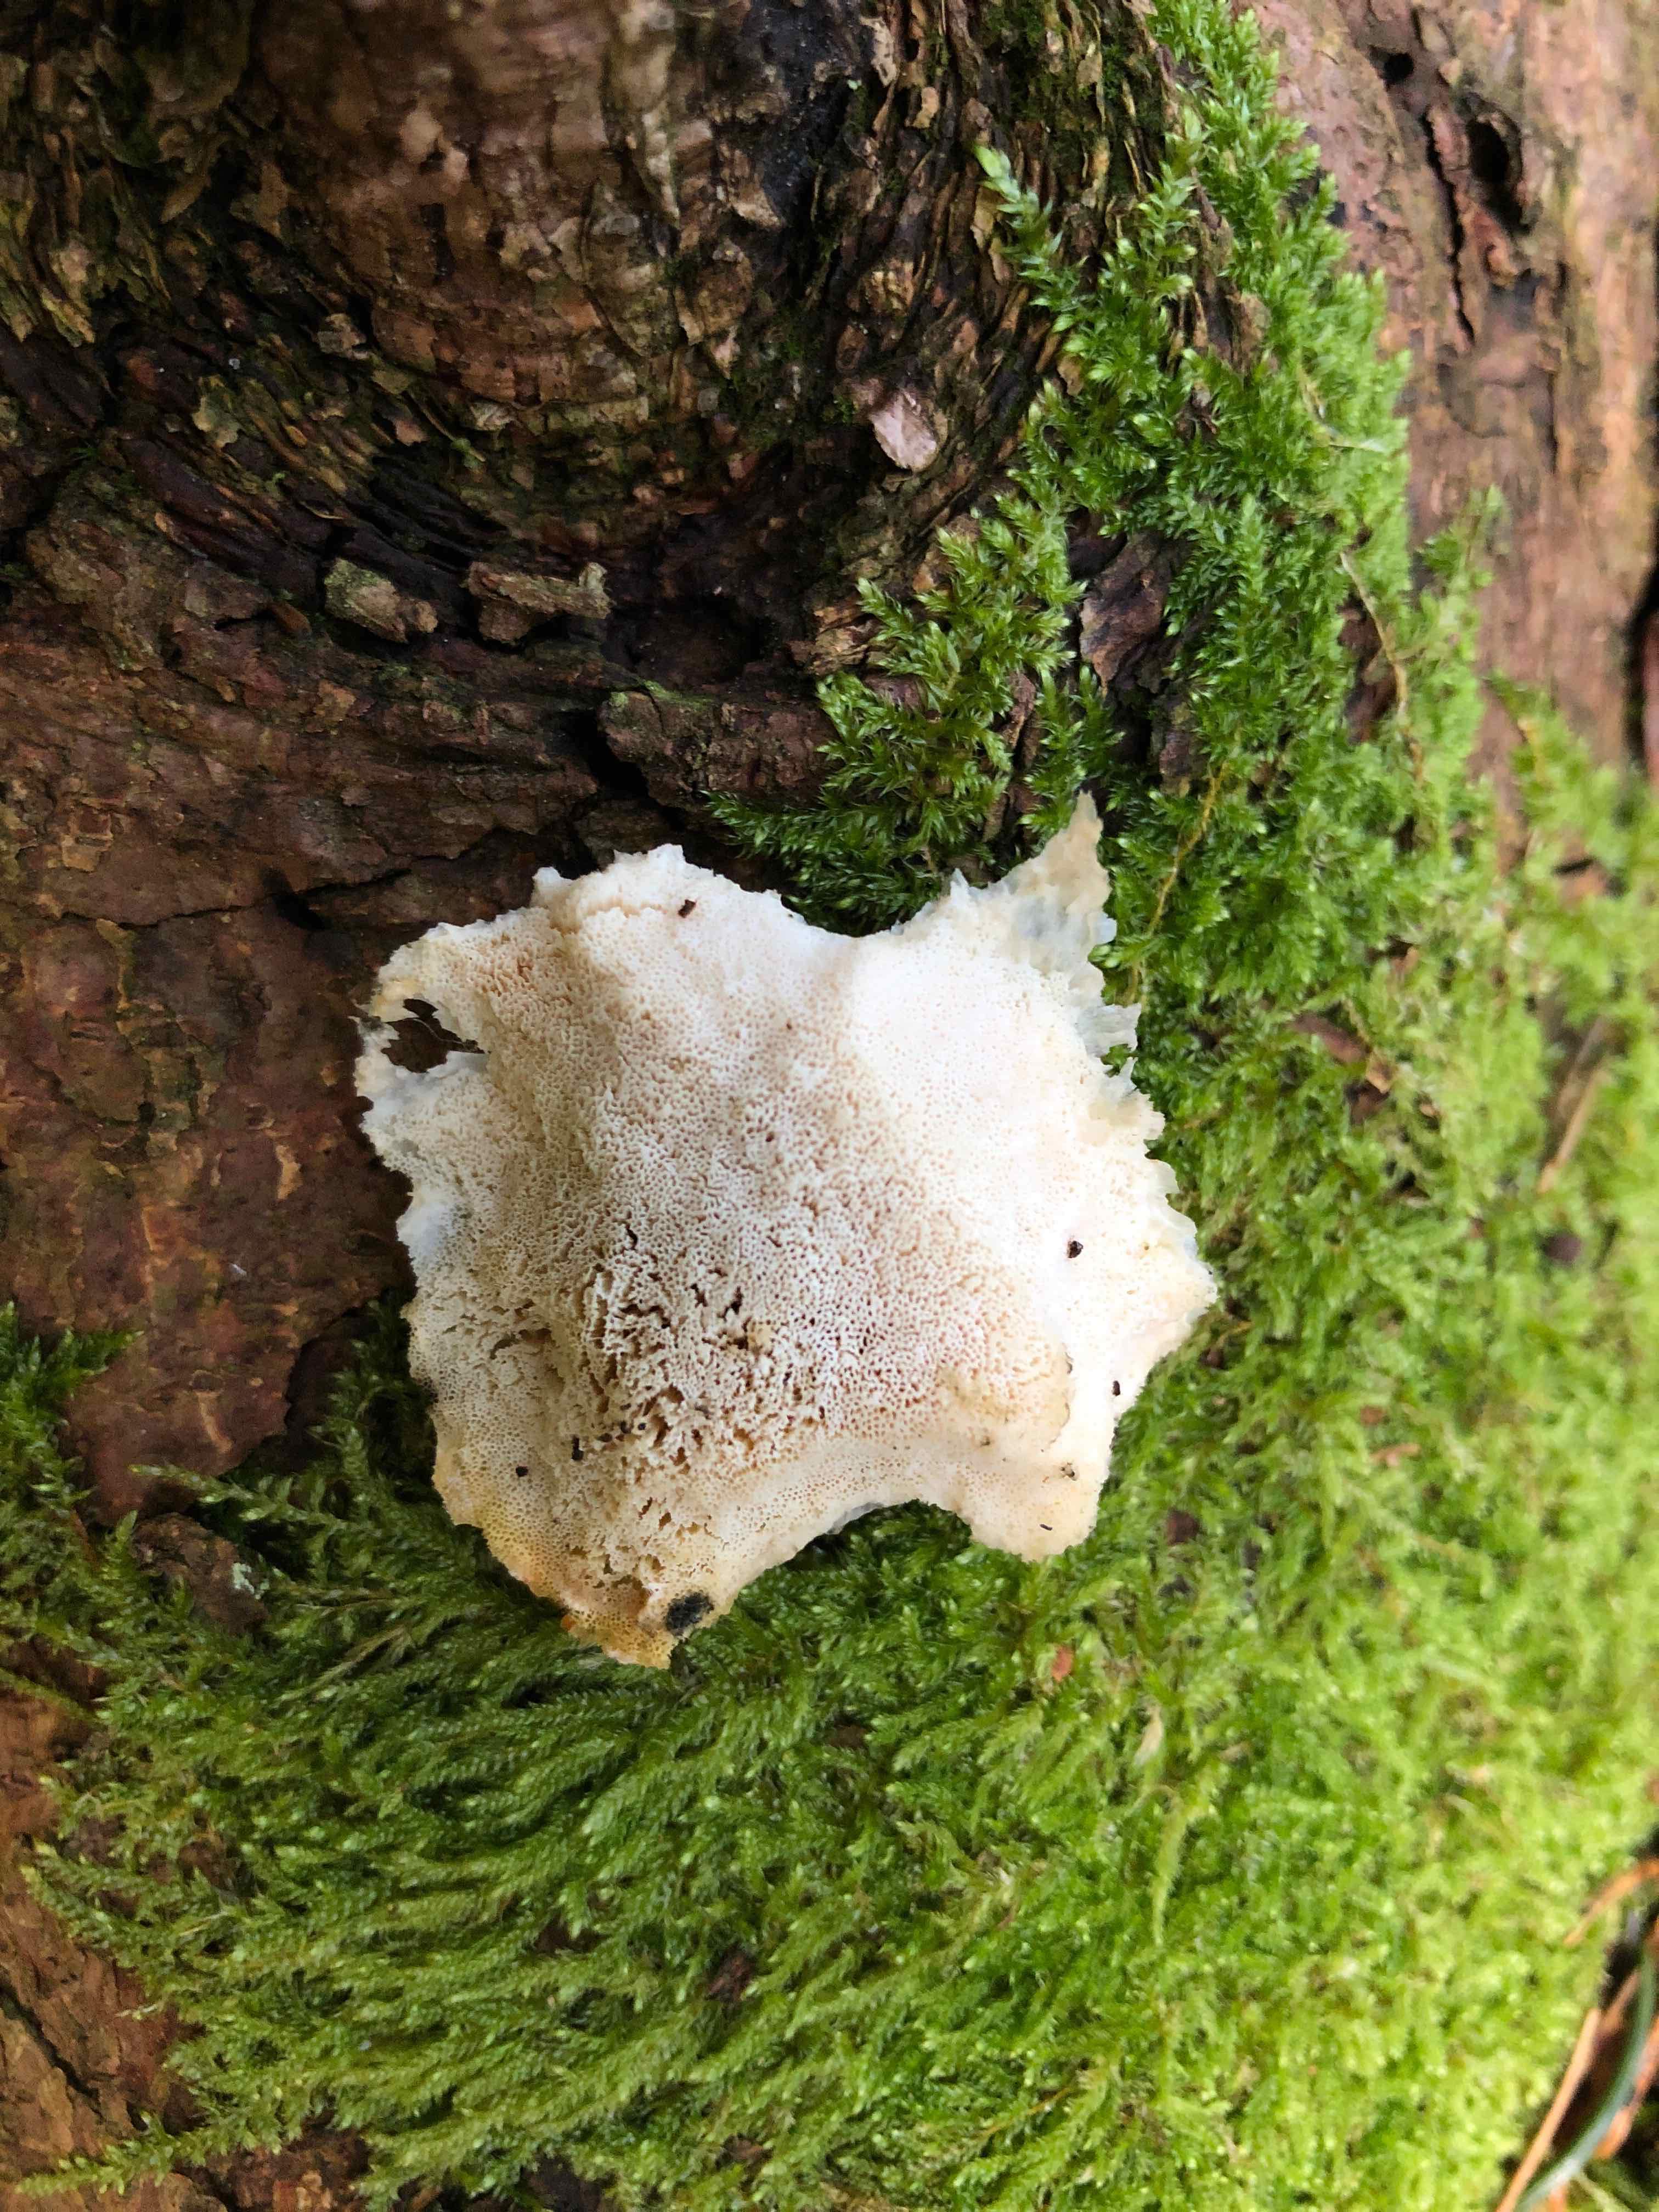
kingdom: Fungi
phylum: Basidiomycota
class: Agaricomycetes
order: Polyporales
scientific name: Polyporales
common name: poresvampordenen
